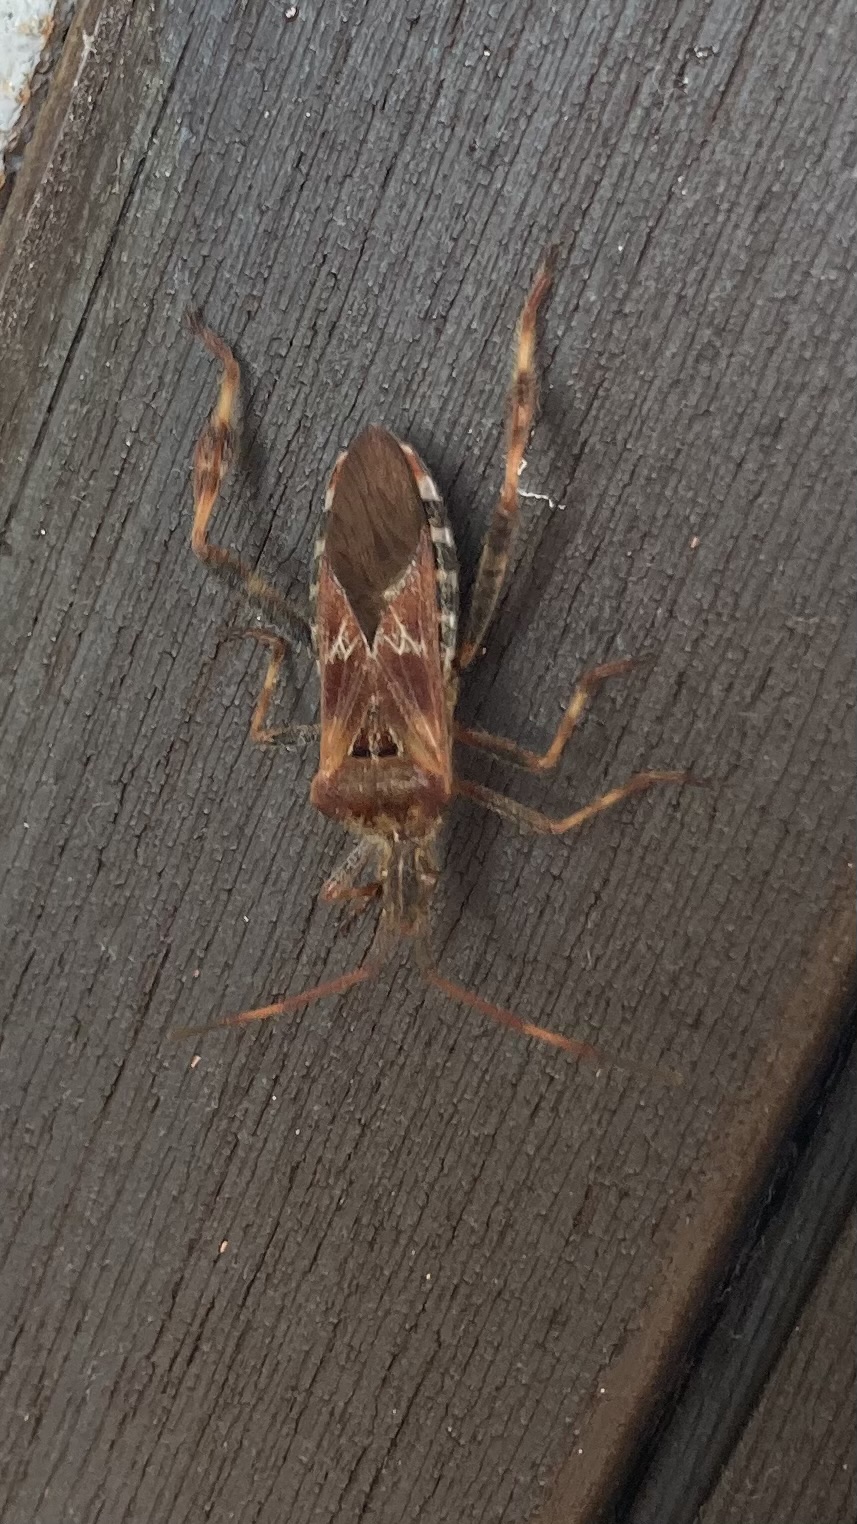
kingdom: Animalia
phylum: Arthropoda
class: Insecta
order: Hemiptera
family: Coreidae
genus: Leptoglossus
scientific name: Leptoglossus occidentalis
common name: Amerikansk fyrretæge
